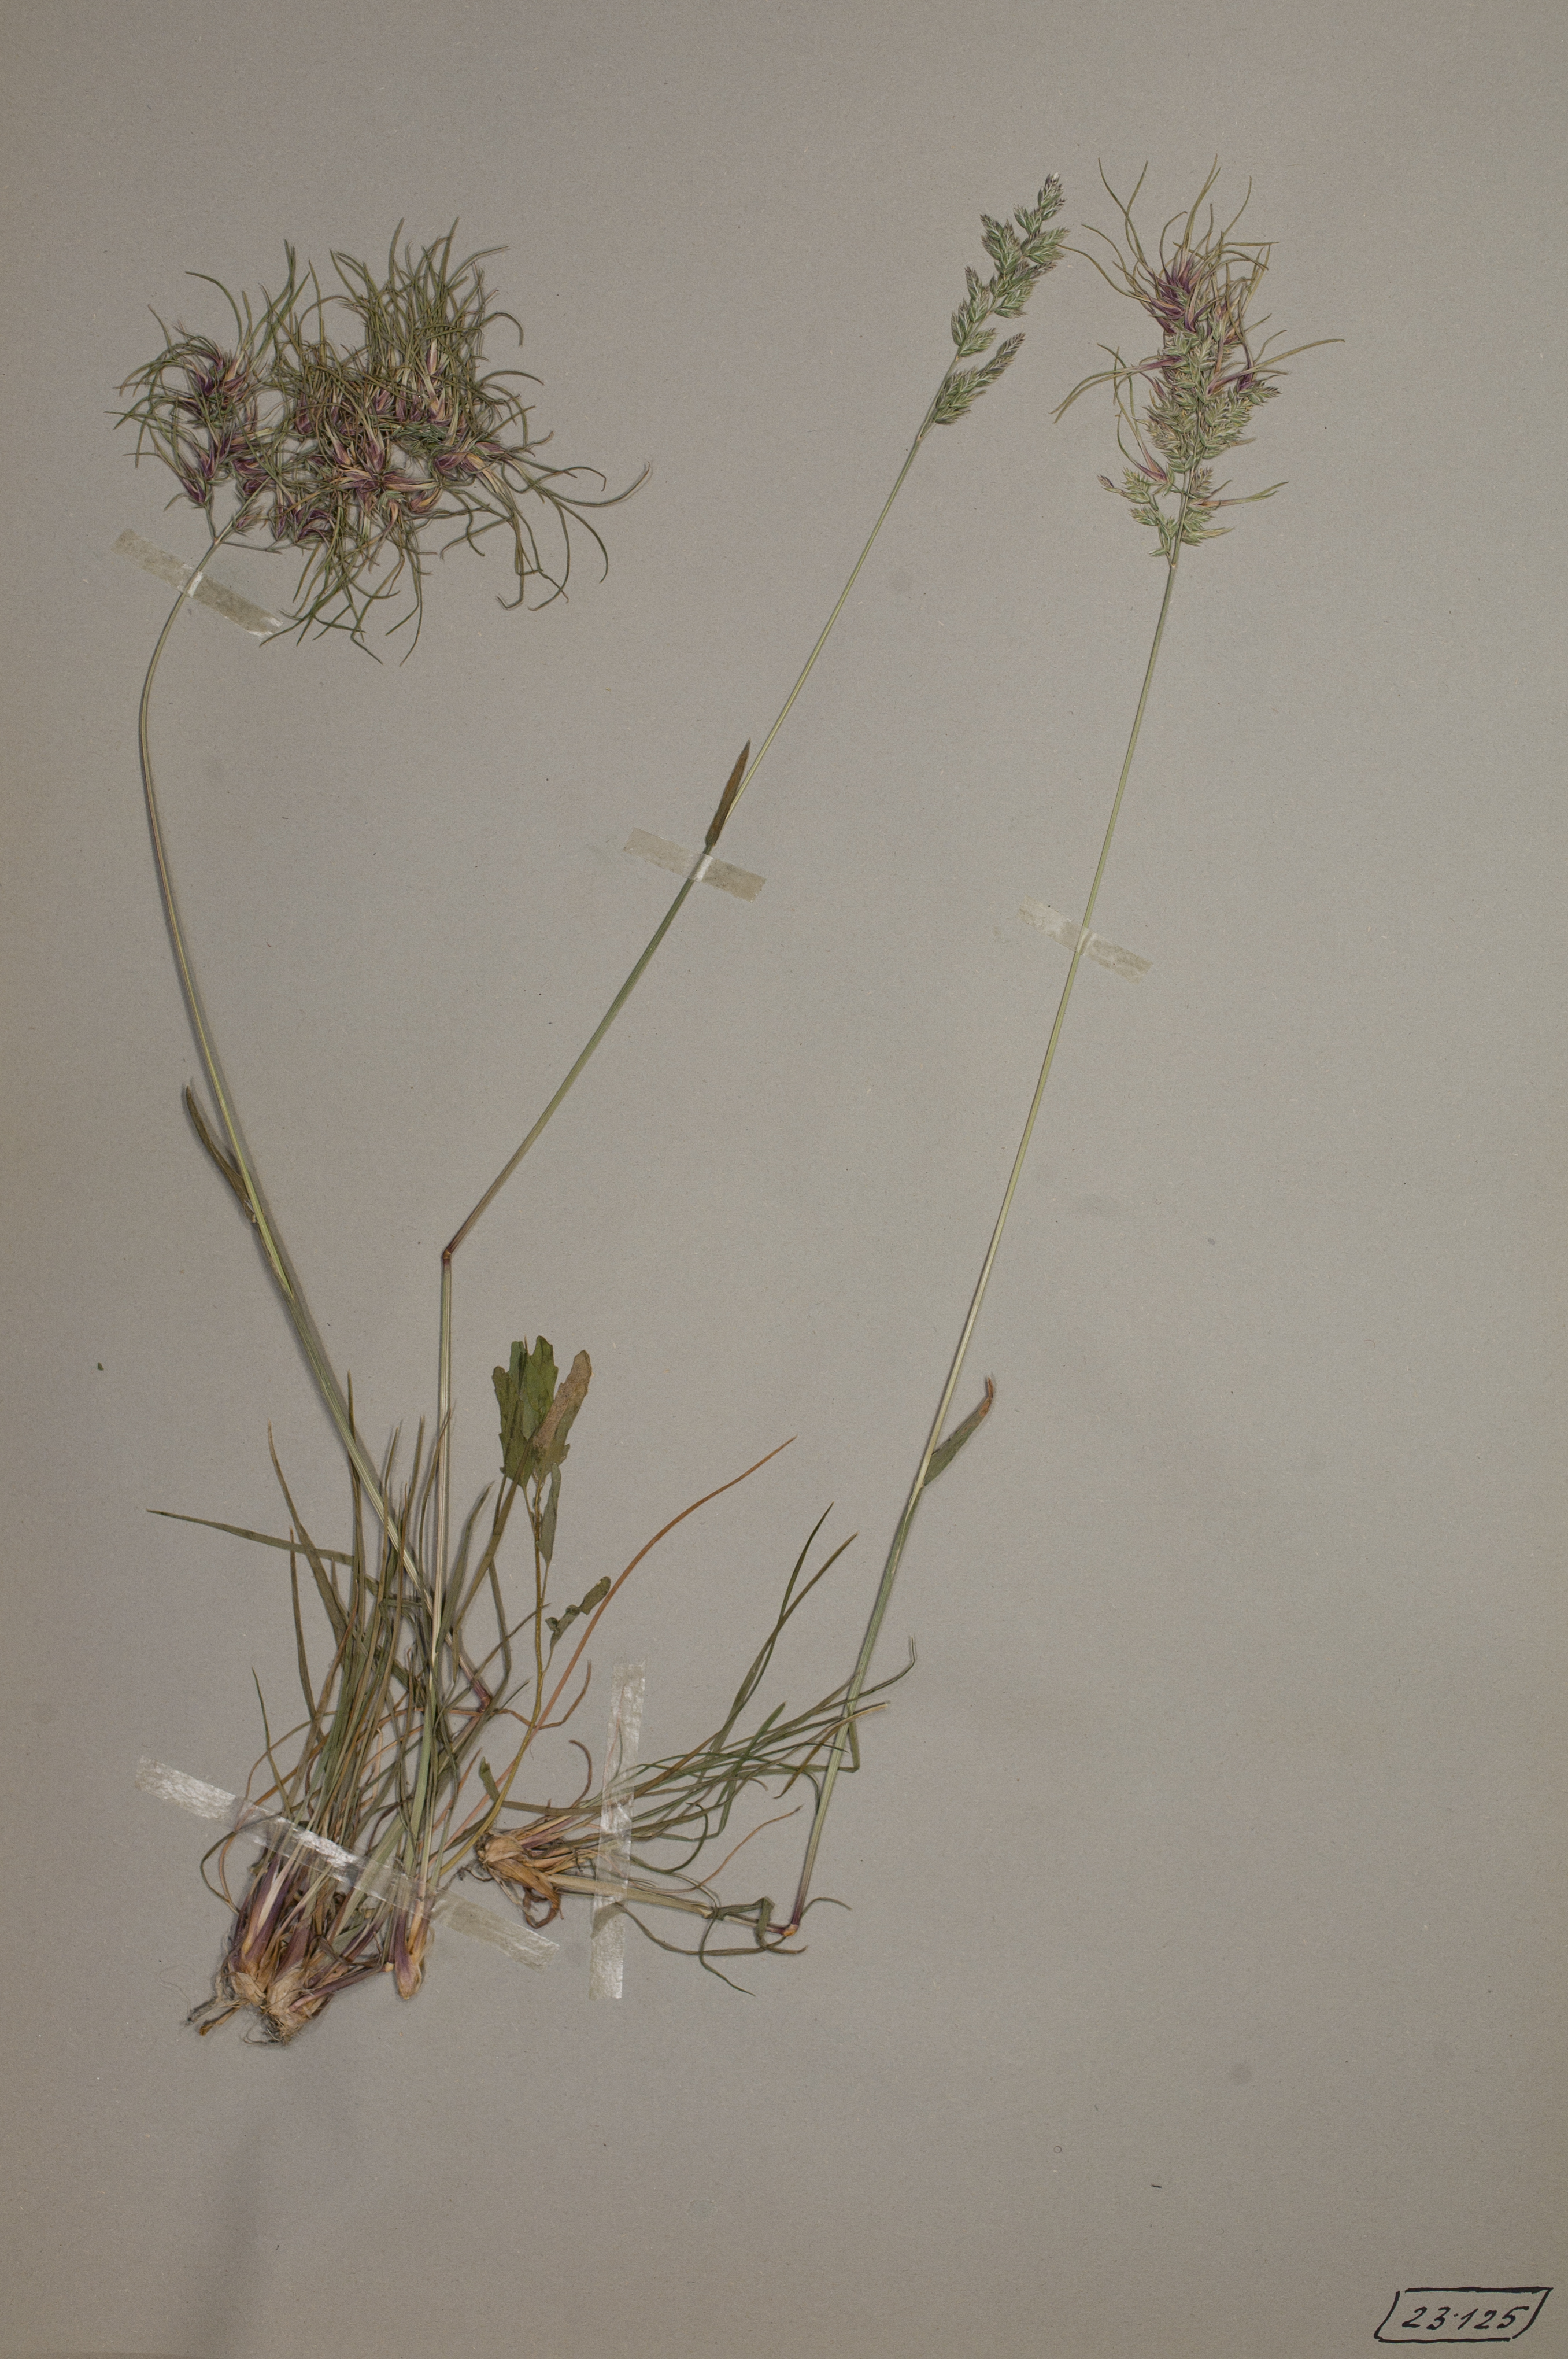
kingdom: Plantae
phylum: Tracheophyta
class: Liliopsida
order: Poales
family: Poaceae
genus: Poa
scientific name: Poa bulbosa
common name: Bulbous bluegrass
